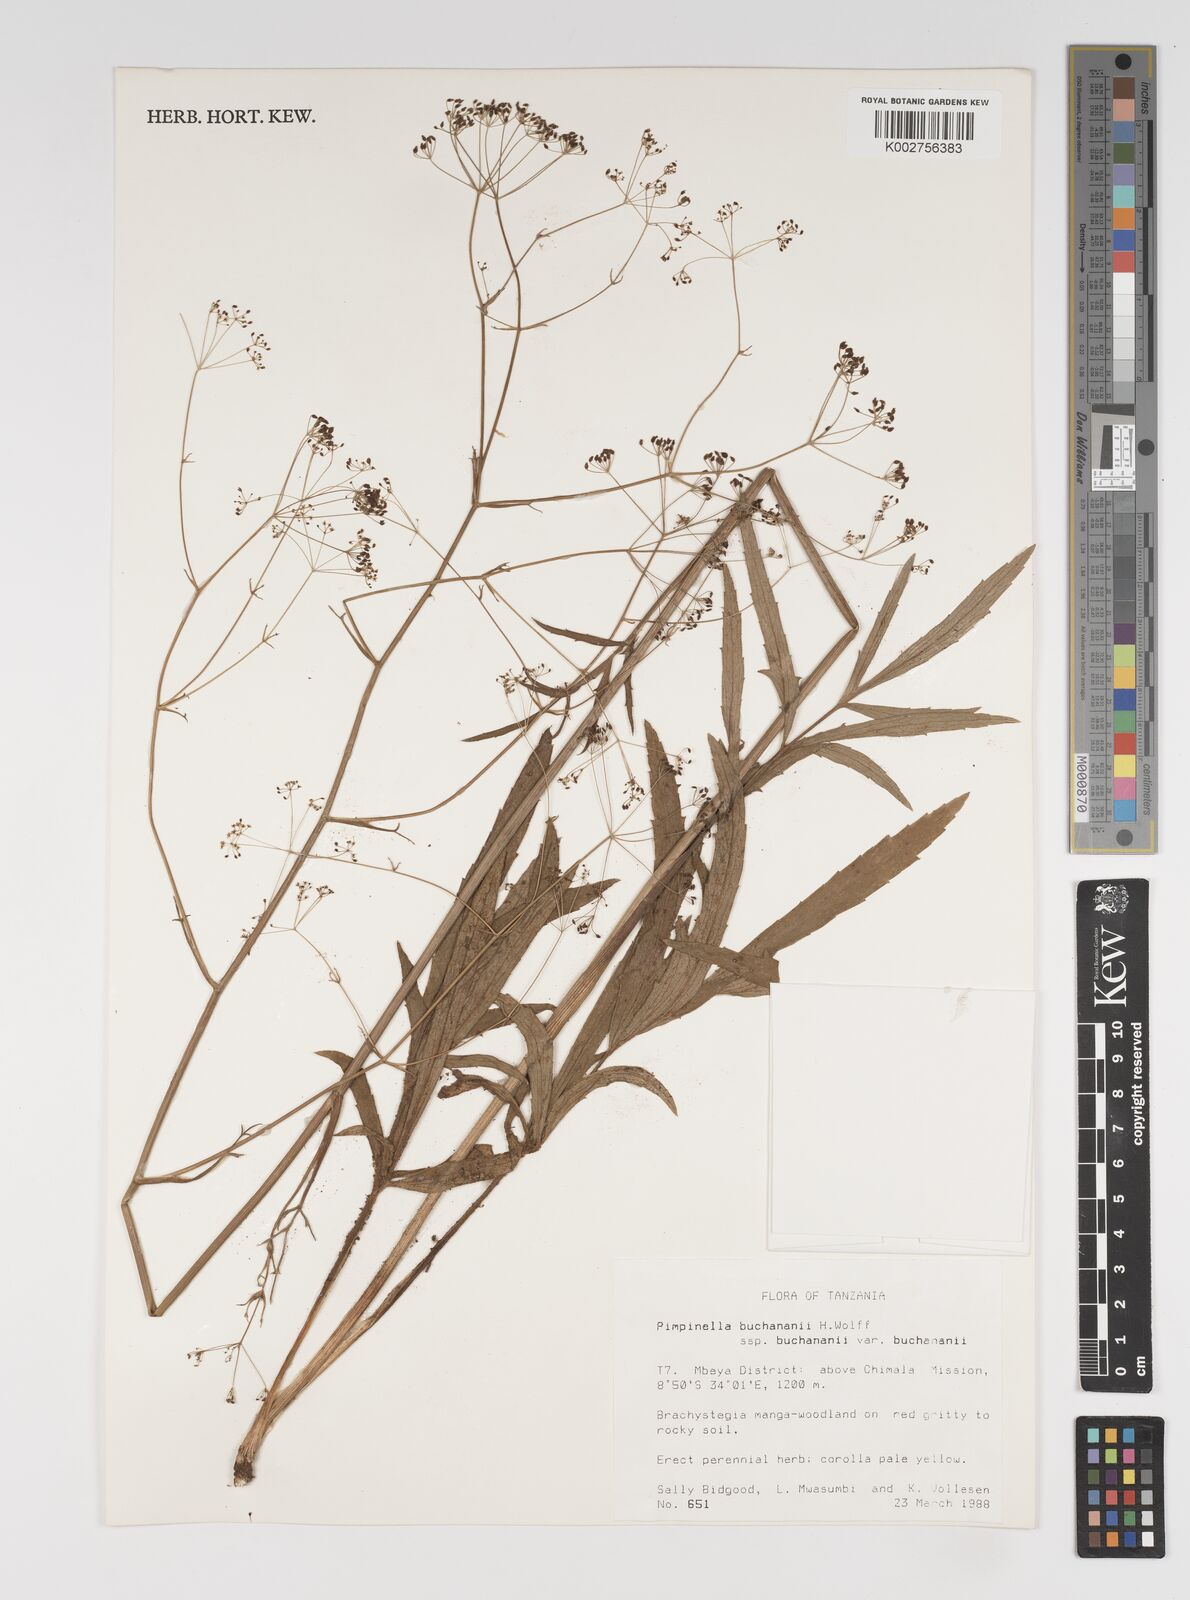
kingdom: Plantae
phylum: Tracheophyta
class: Magnoliopsida
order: Apiales
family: Apiaceae
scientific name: Apiaceae
